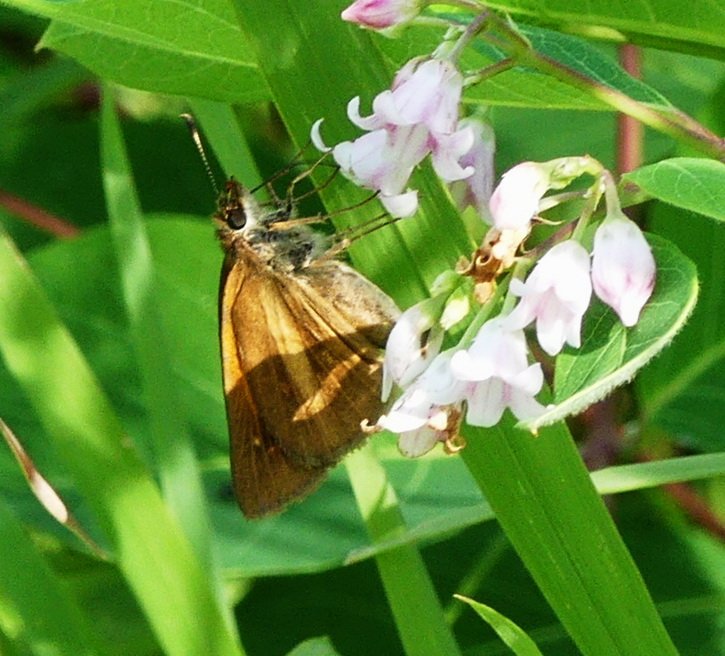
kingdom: Animalia
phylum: Arthropoda
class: Insecta
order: Lepidoptera
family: Hesperiidae
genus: Poanes
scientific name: Poanes viator
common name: Broad-winged Skipper
